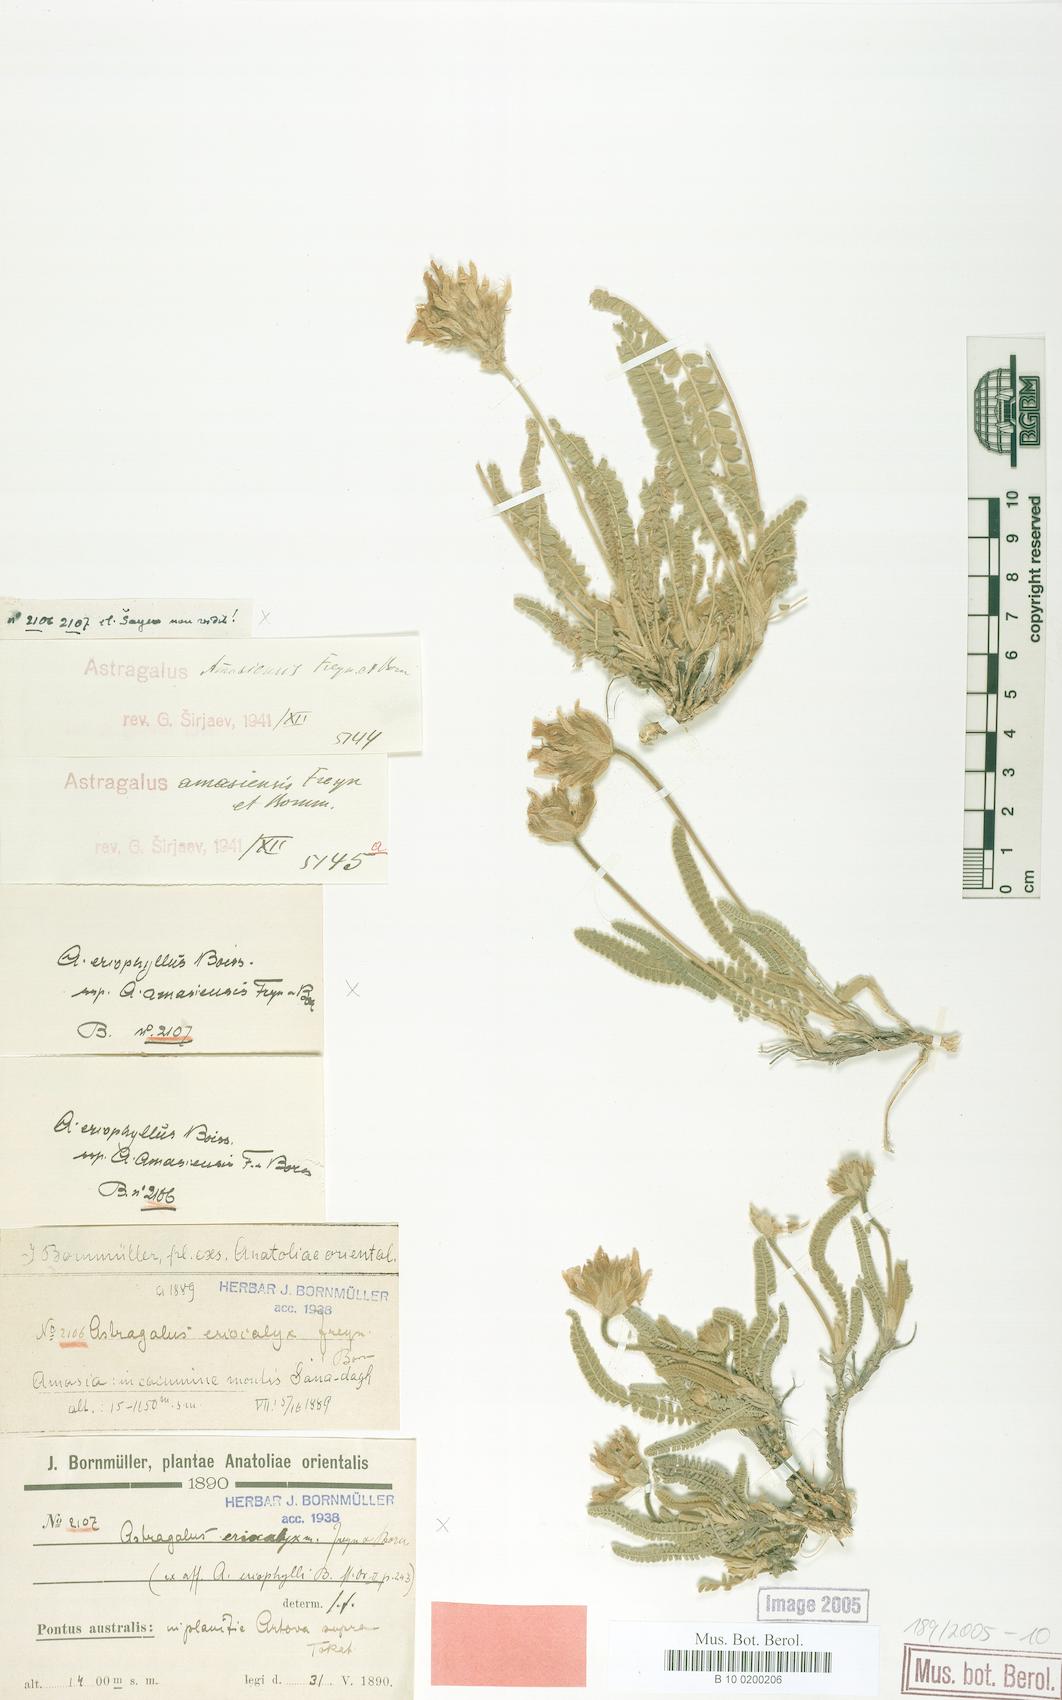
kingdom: Plantae
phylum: Tracheophyta
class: Magnoliopsida
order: Fabales
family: Fabaceae
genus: Astragalus
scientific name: Astragalus densifolius
